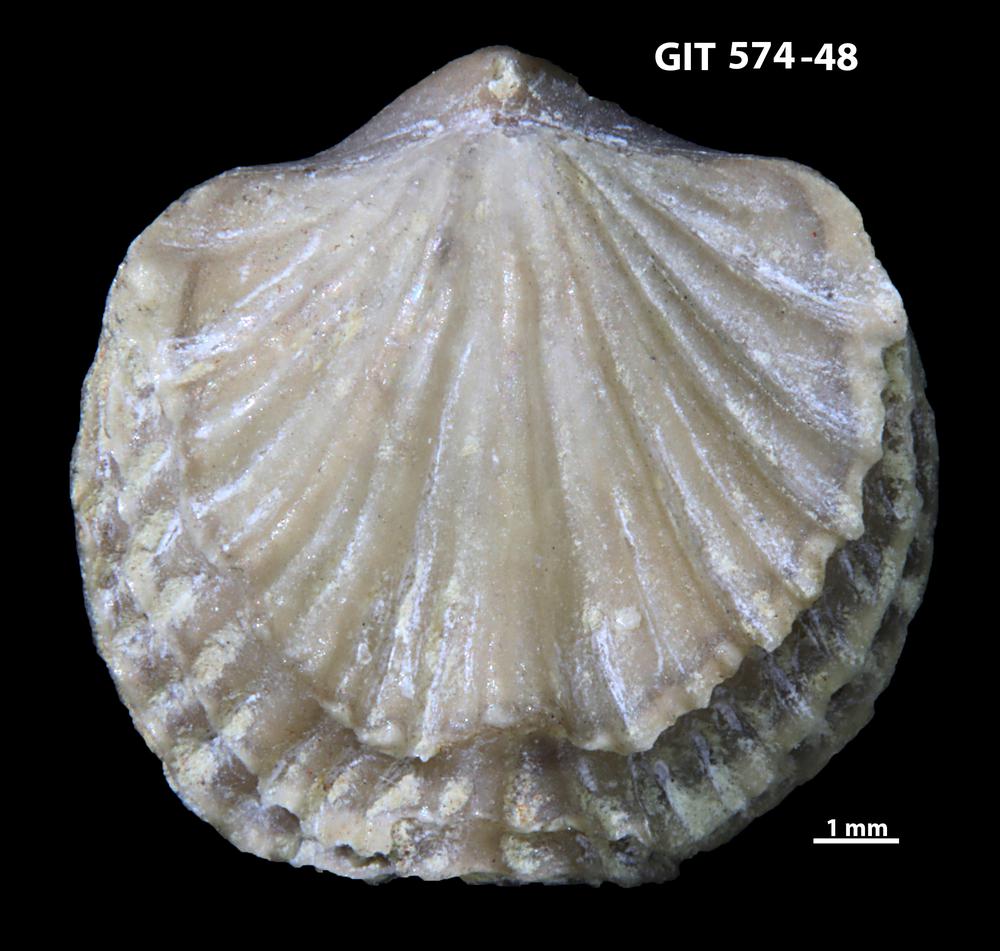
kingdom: Animalia
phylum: Brachiopoda
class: Rhynchonellata
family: Atrypinidae
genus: Eospirigerina
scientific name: Eospirigerina sulevi
